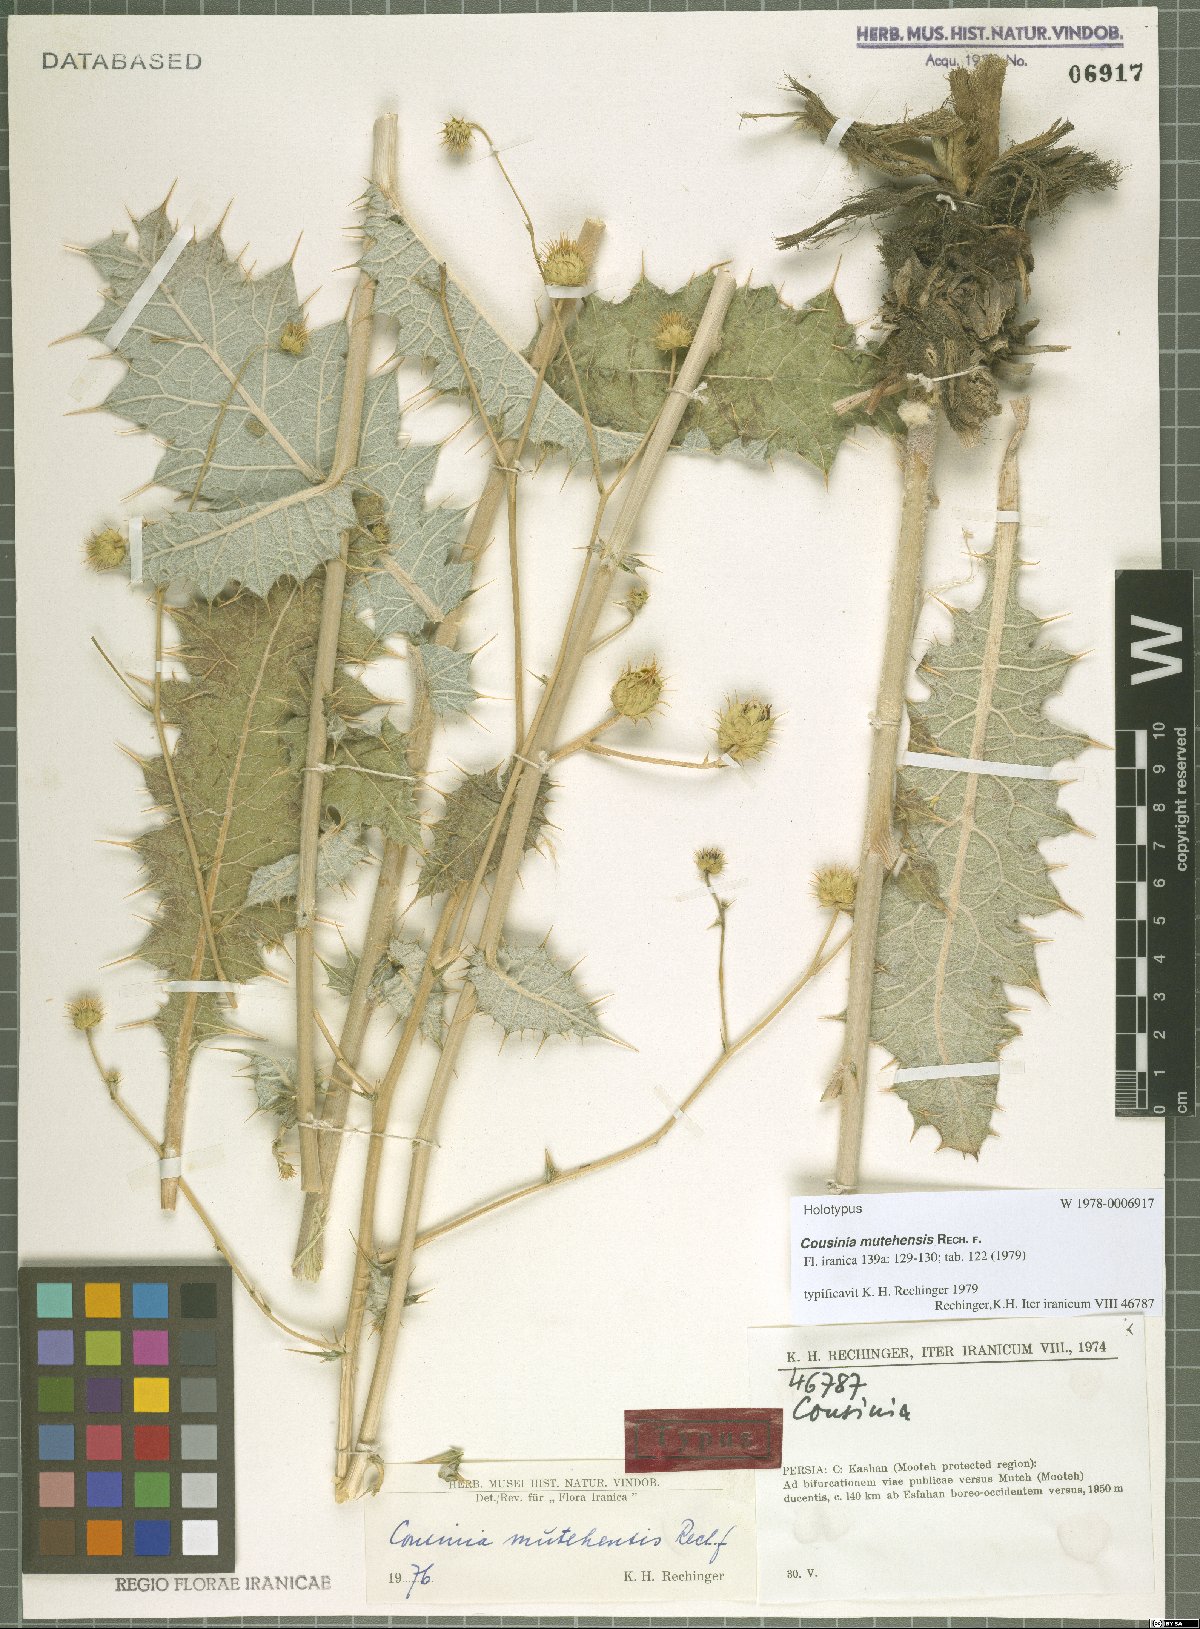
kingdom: Plantae
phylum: Tracheophyta
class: Magnoliopsida
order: Asterales
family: Asteraceae
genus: Cousinia
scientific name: Cousinia mutehensis
